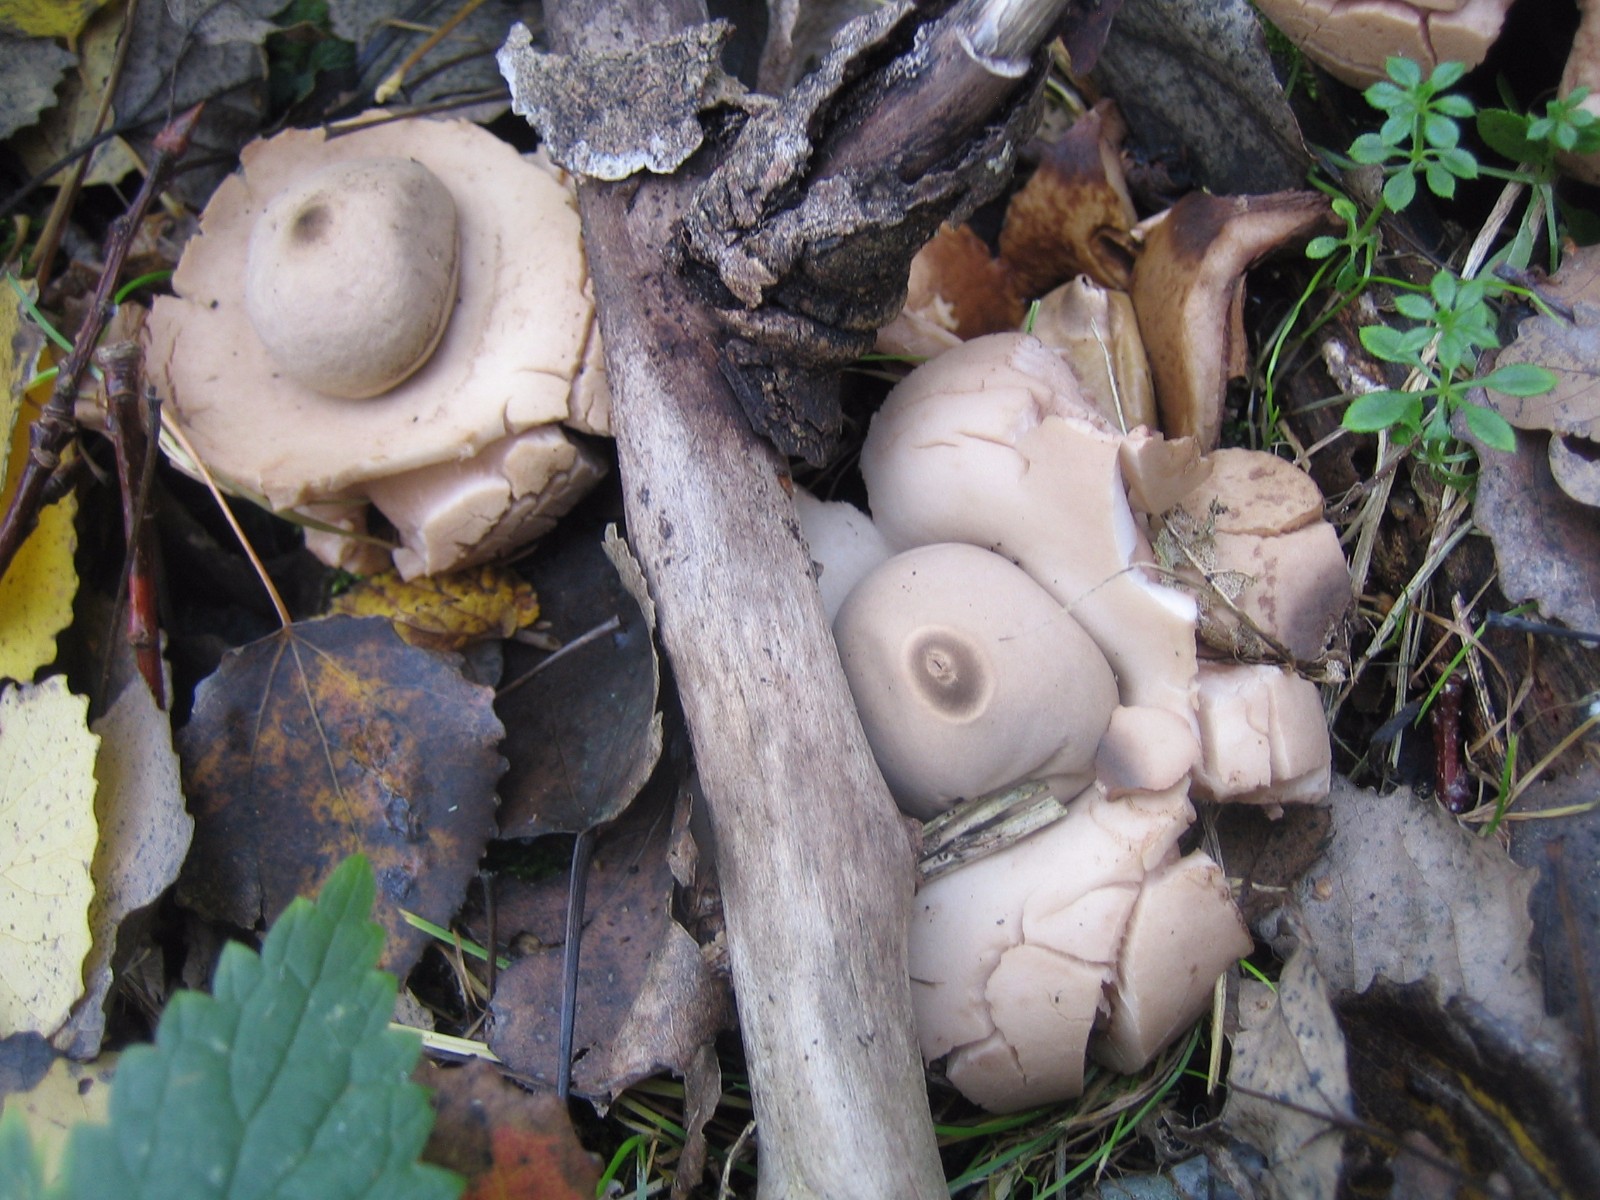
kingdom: Fungi
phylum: Basidiomycota
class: Agaricomycetes
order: Geastrales
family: Geastraceae
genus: Geastrum
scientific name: Geastrum michelianum
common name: kødet stjernebold
